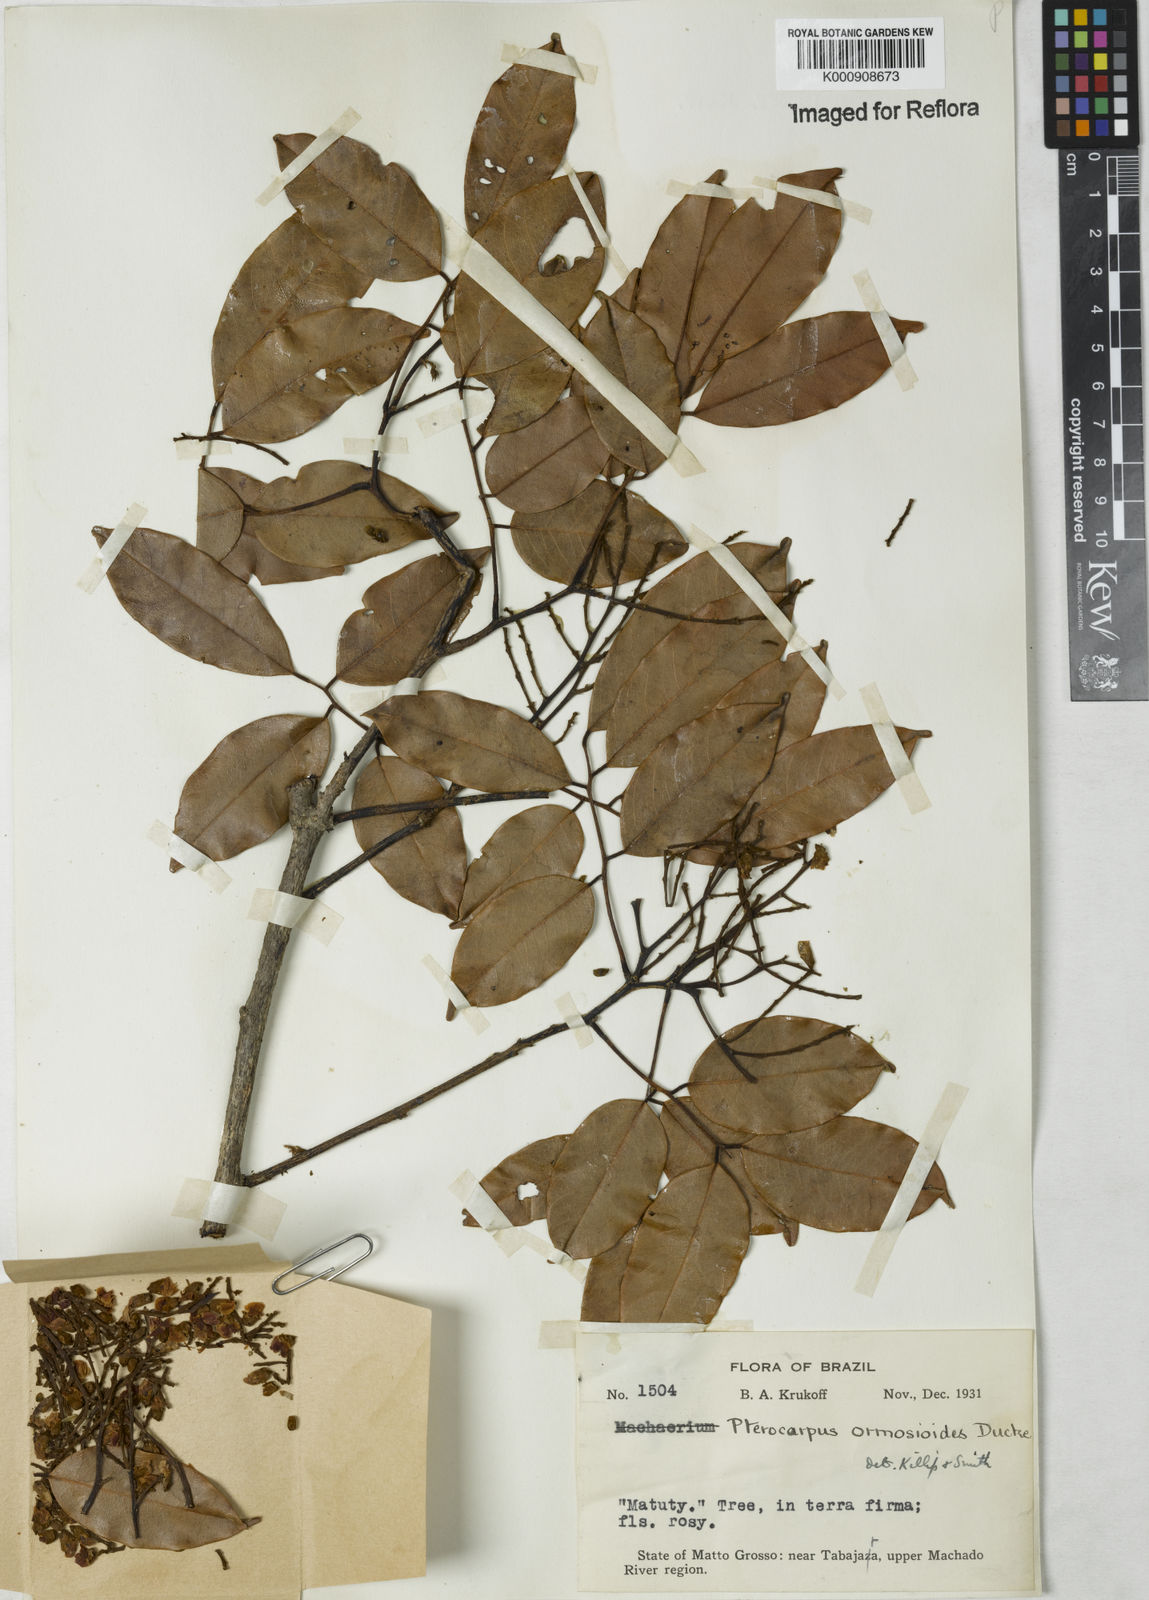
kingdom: Plantae
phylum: Tracheophyta
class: Magnoliopsida
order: Fabales
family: Fabaceae
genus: Paramachaerium
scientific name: Paramachaerium ormosioides
